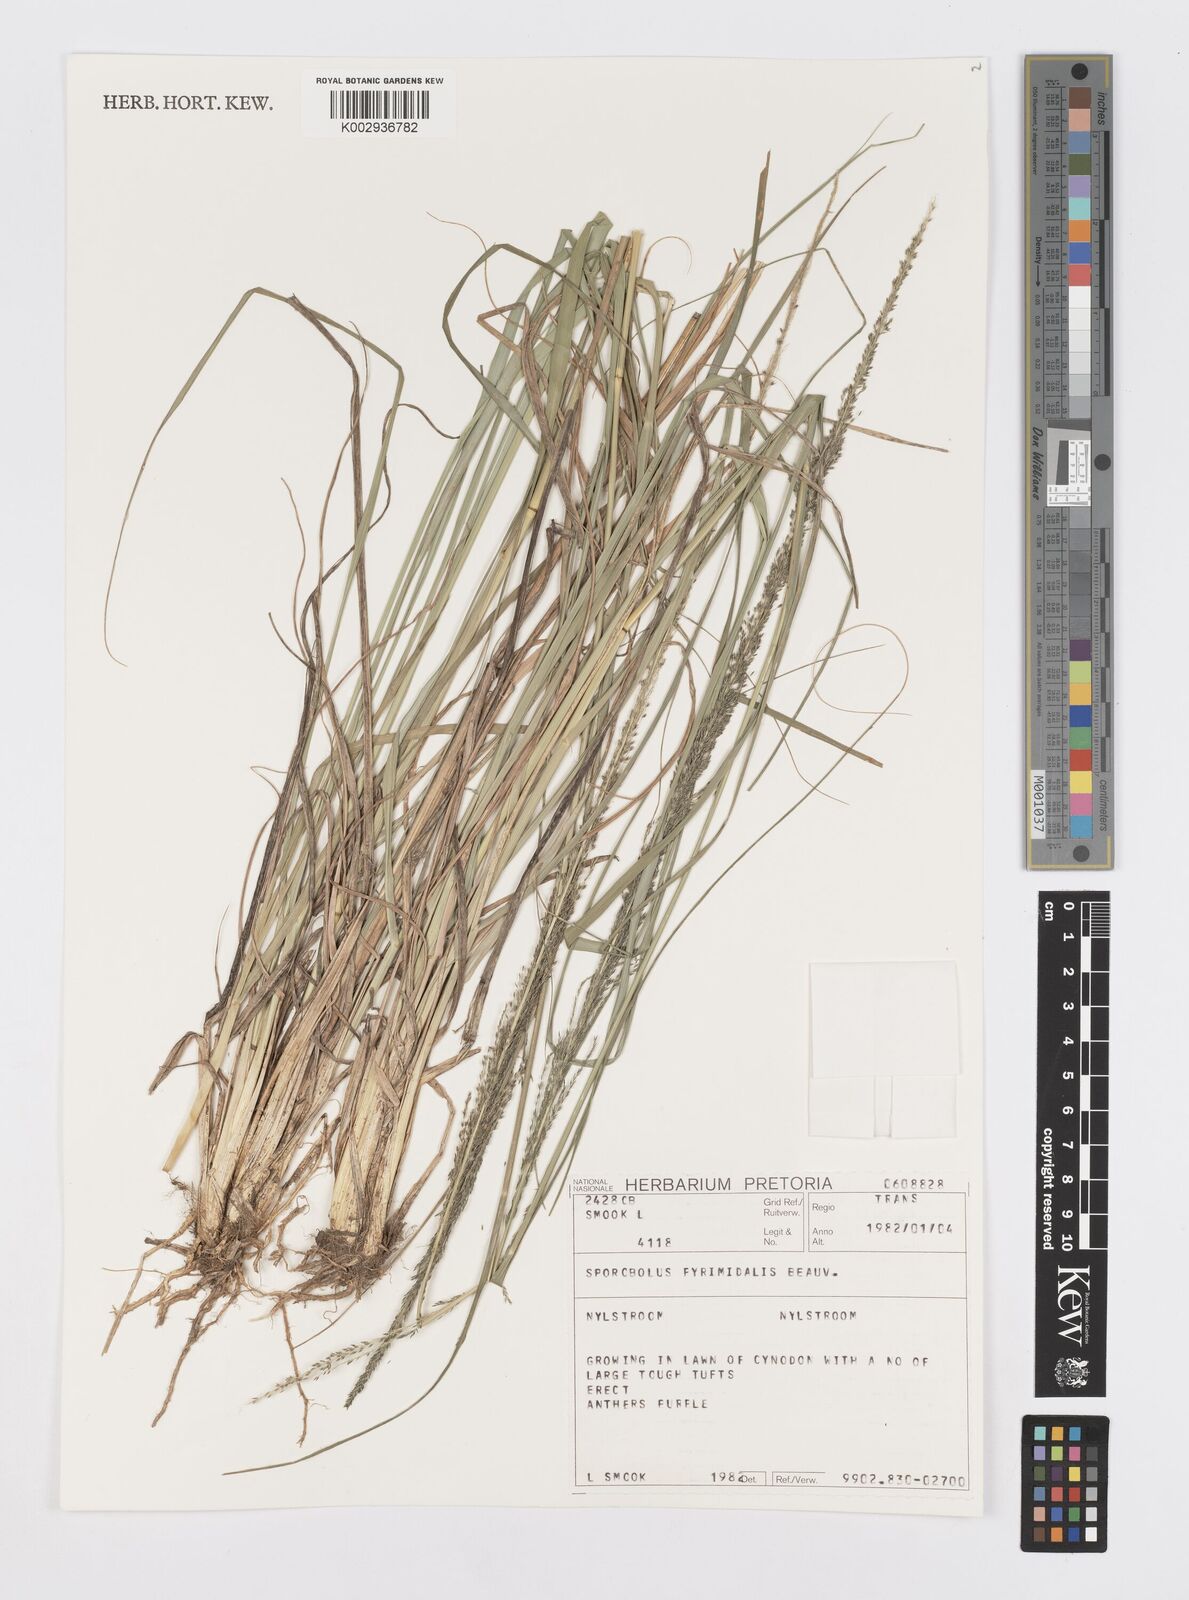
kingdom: Plantae
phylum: Tracheophyta
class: Liliopsida
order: Poales
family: Poaceae
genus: Sporobolus
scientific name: Sporobolus pyramidalis
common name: West indian dropseed
